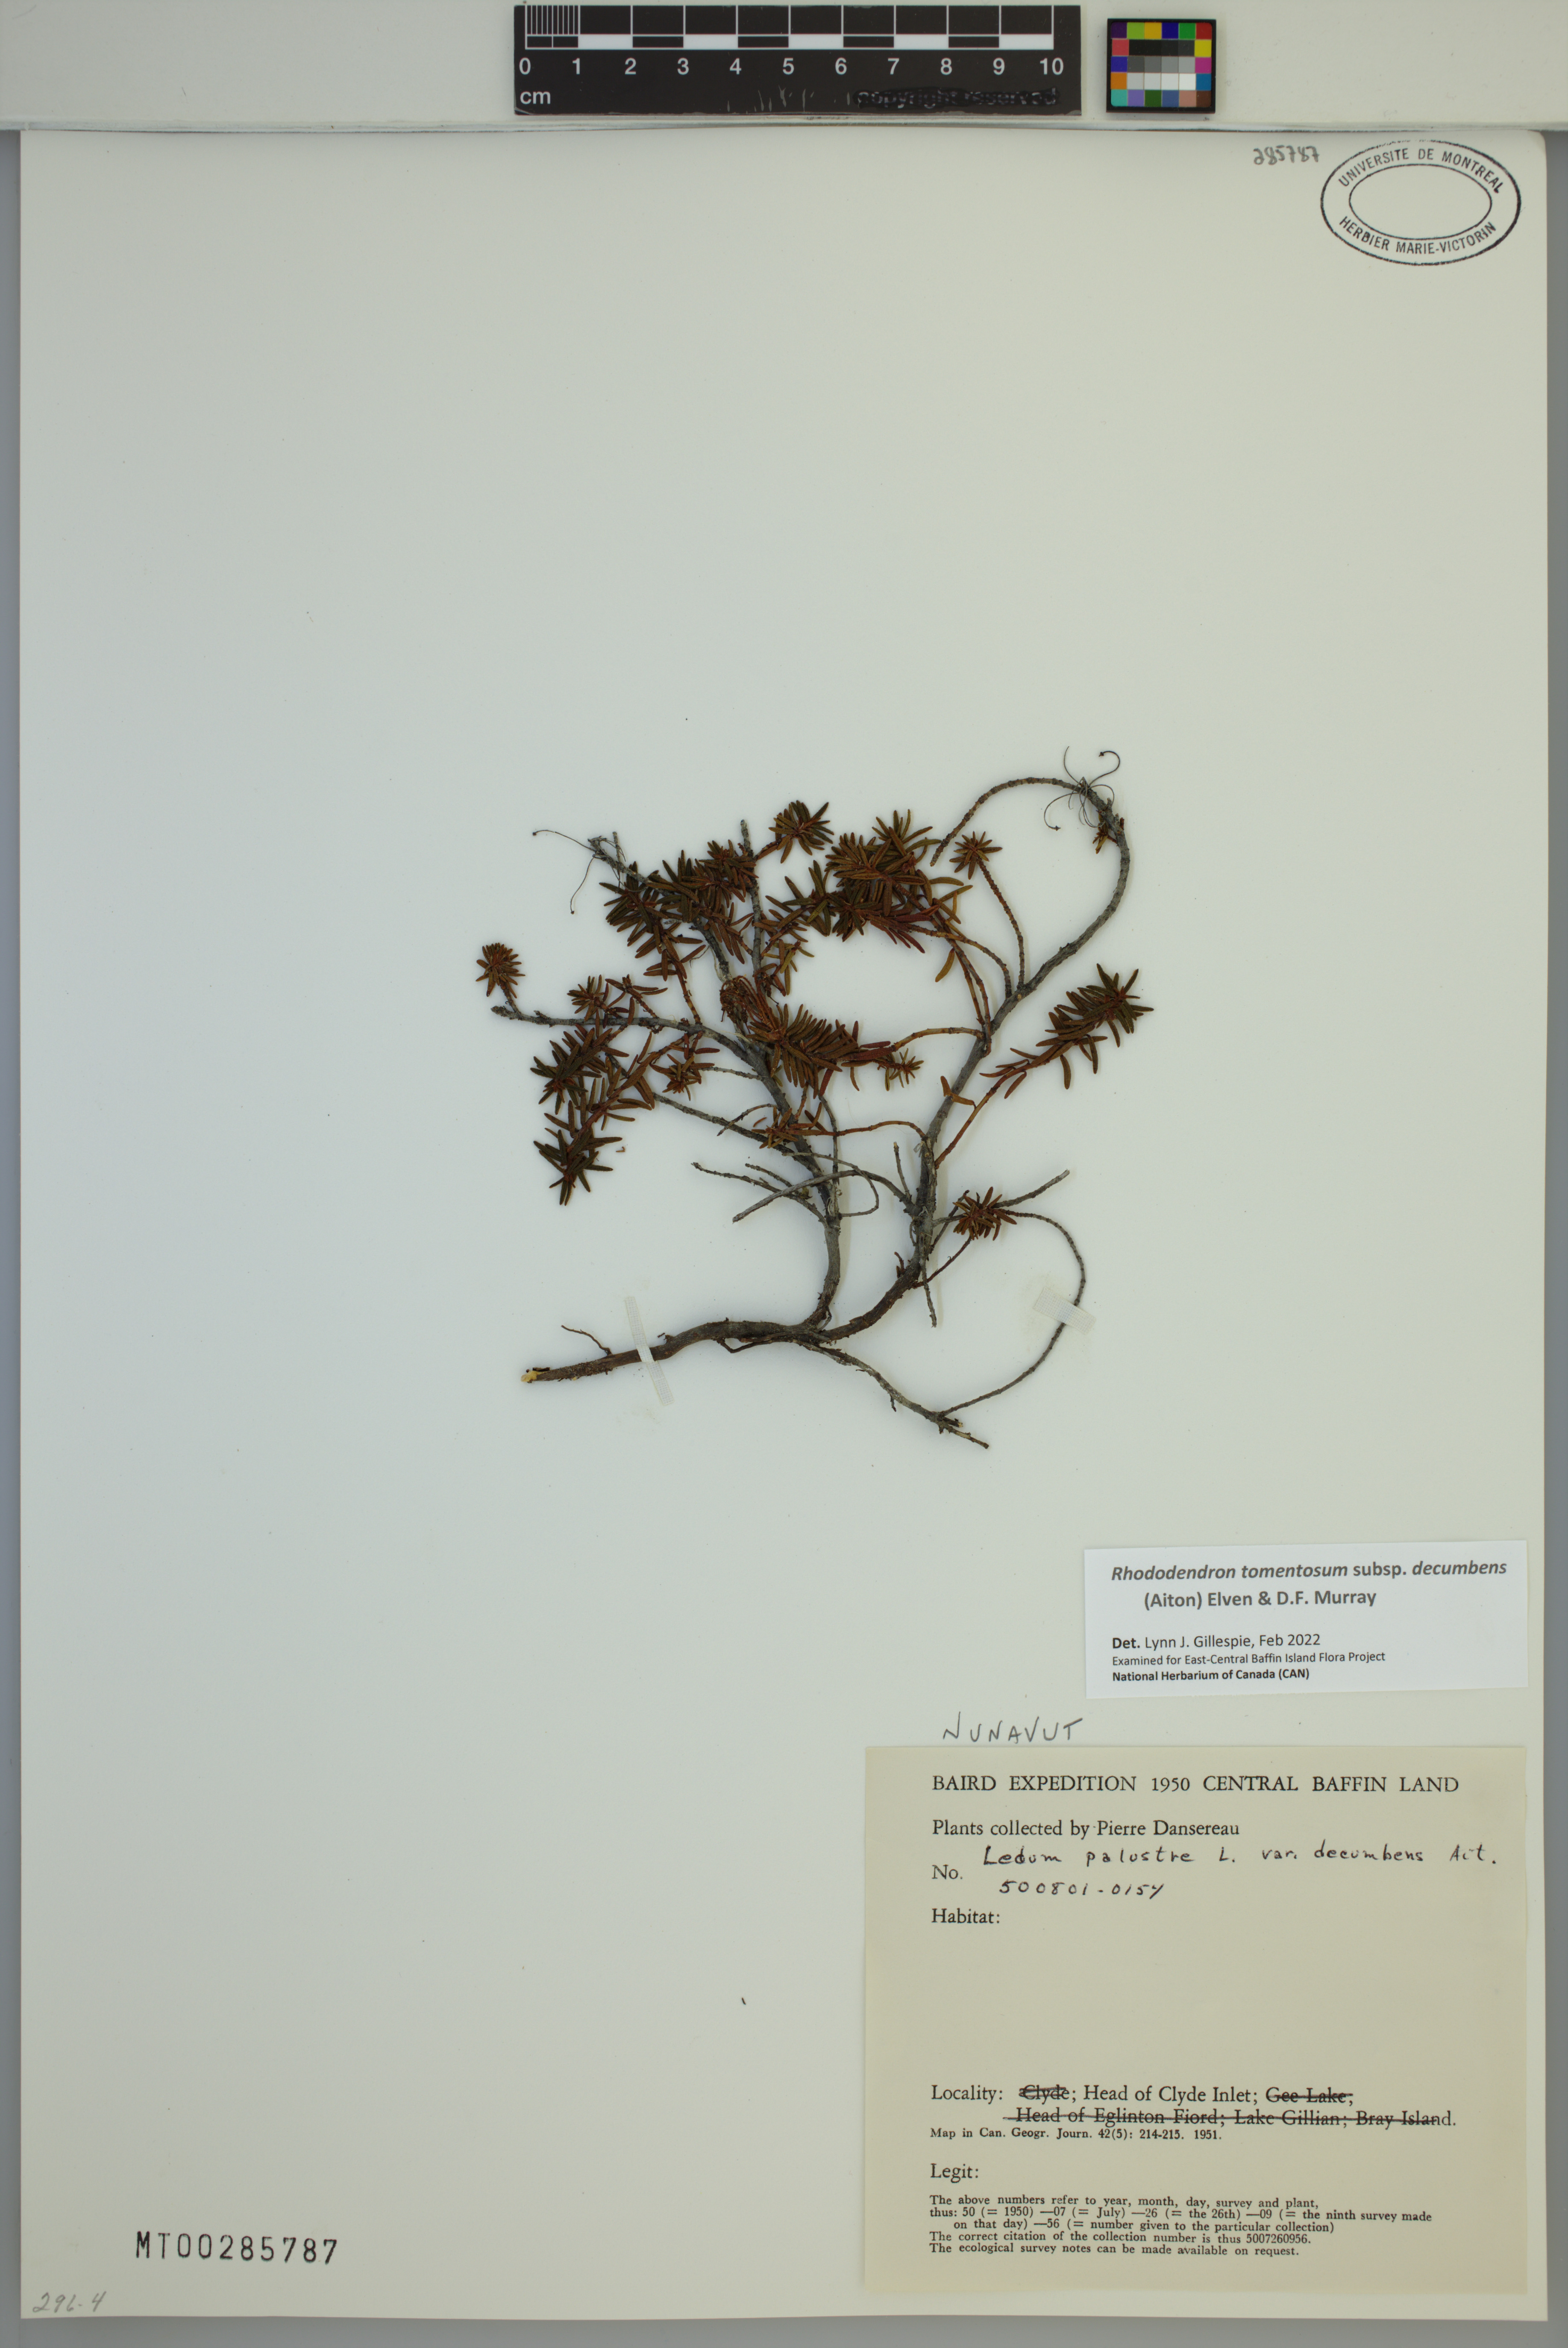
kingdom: Plantae
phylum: Tracheophyta
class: Magnoliopsida
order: Ericales
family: Ericaceae
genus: Rhododendron
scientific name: Rhododendron tomentosum
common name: Marsh labrador tea
